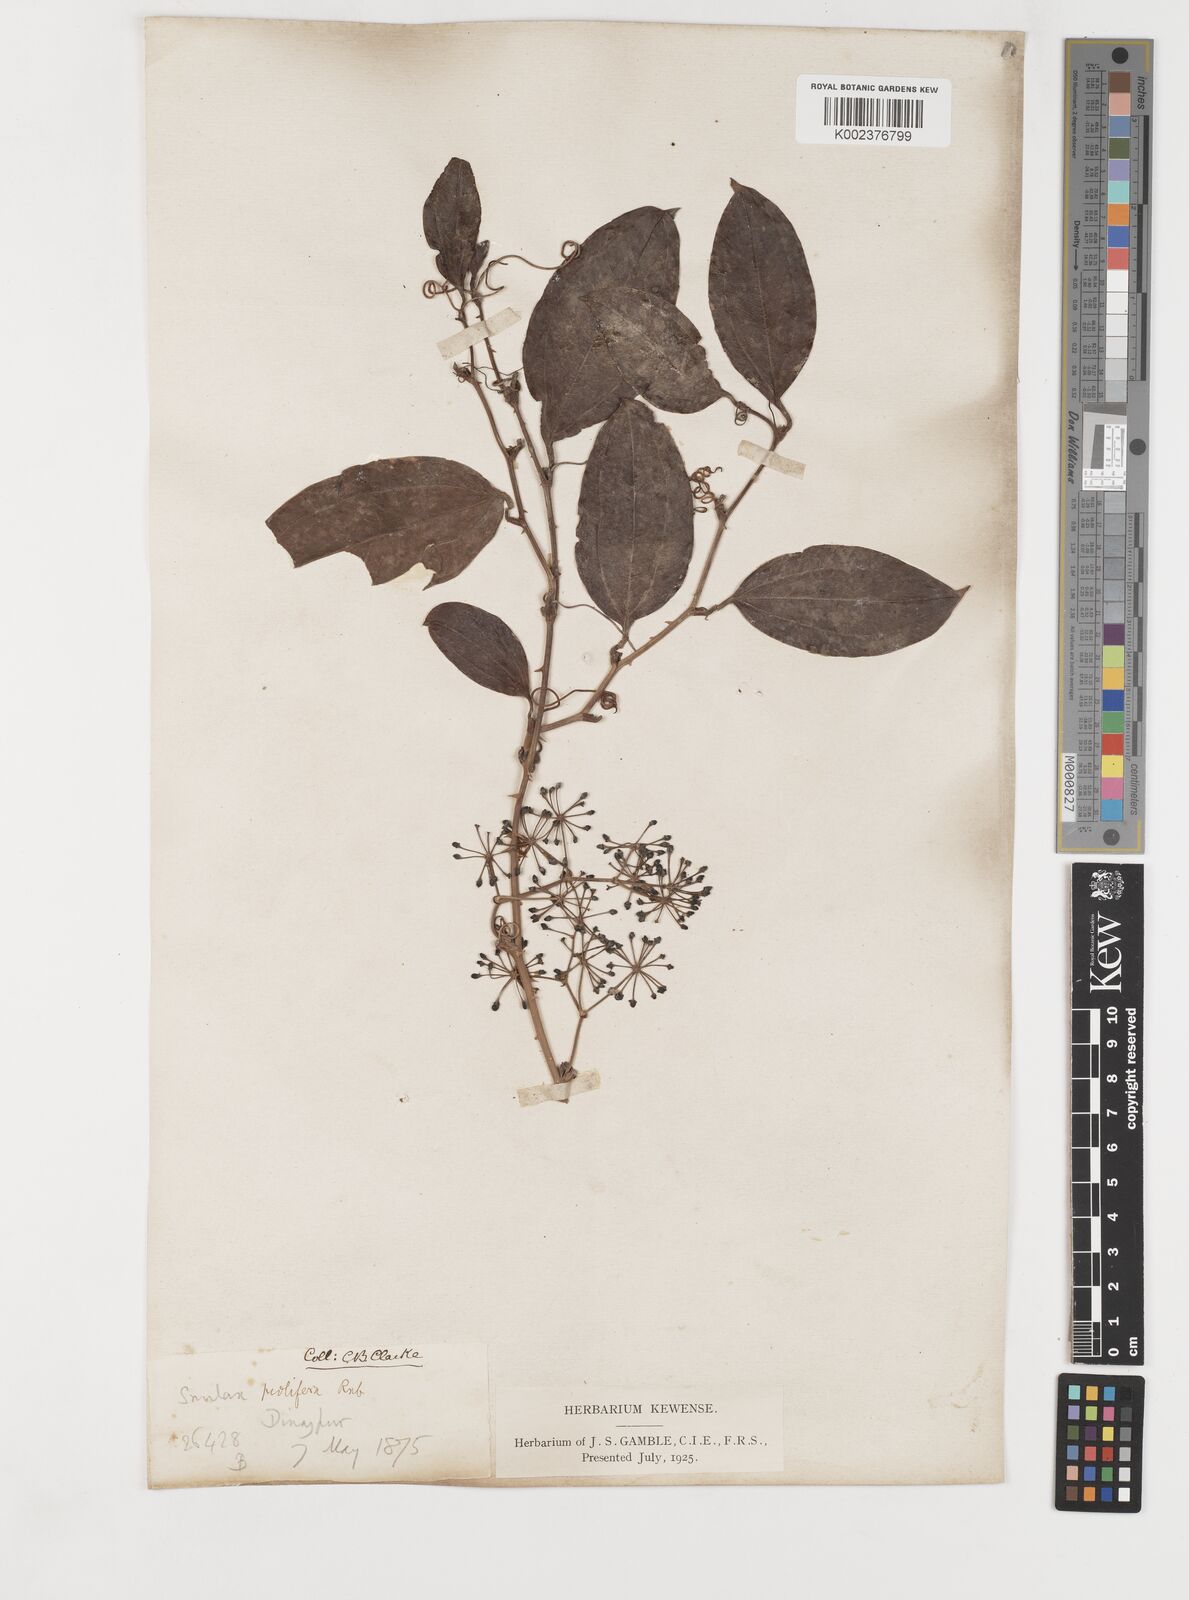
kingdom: Plantae
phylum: Tracheophyta
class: Liliopsida
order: Liliales
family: Smilacaceae
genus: Smilax
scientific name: Smilax prolifera
